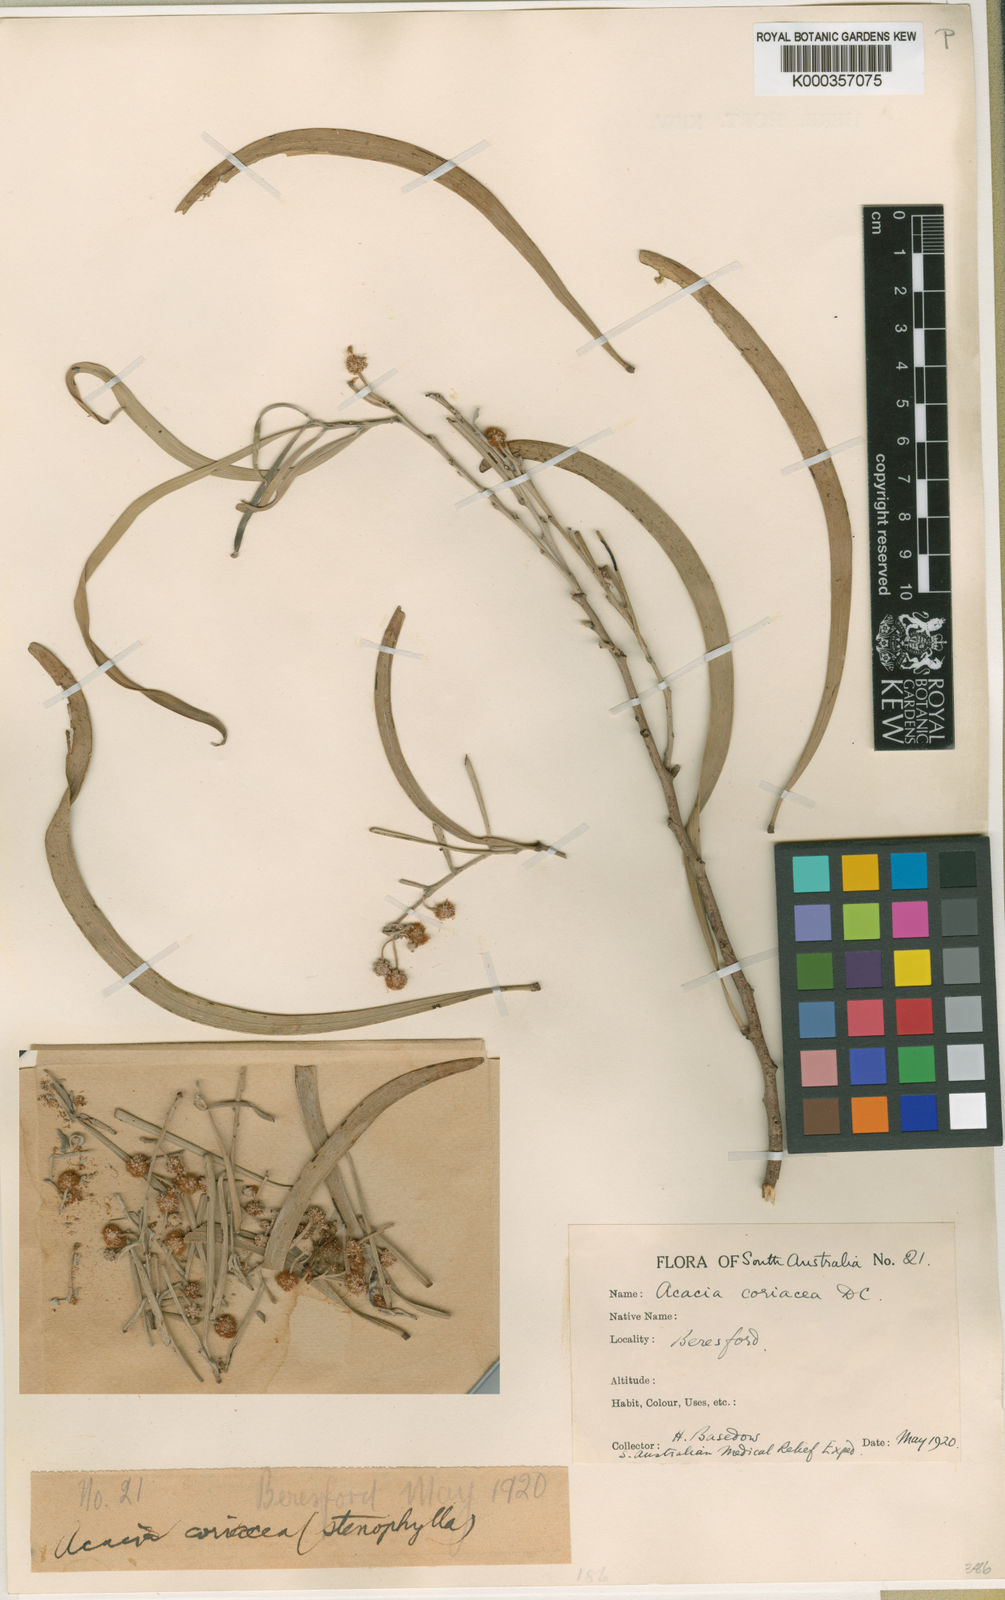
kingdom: Plantae
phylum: Tracheophyta
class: Magnoliopsida
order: Fabales
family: Fabaceae
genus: Acacia
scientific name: Acacia coriacea
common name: Desert-oak
